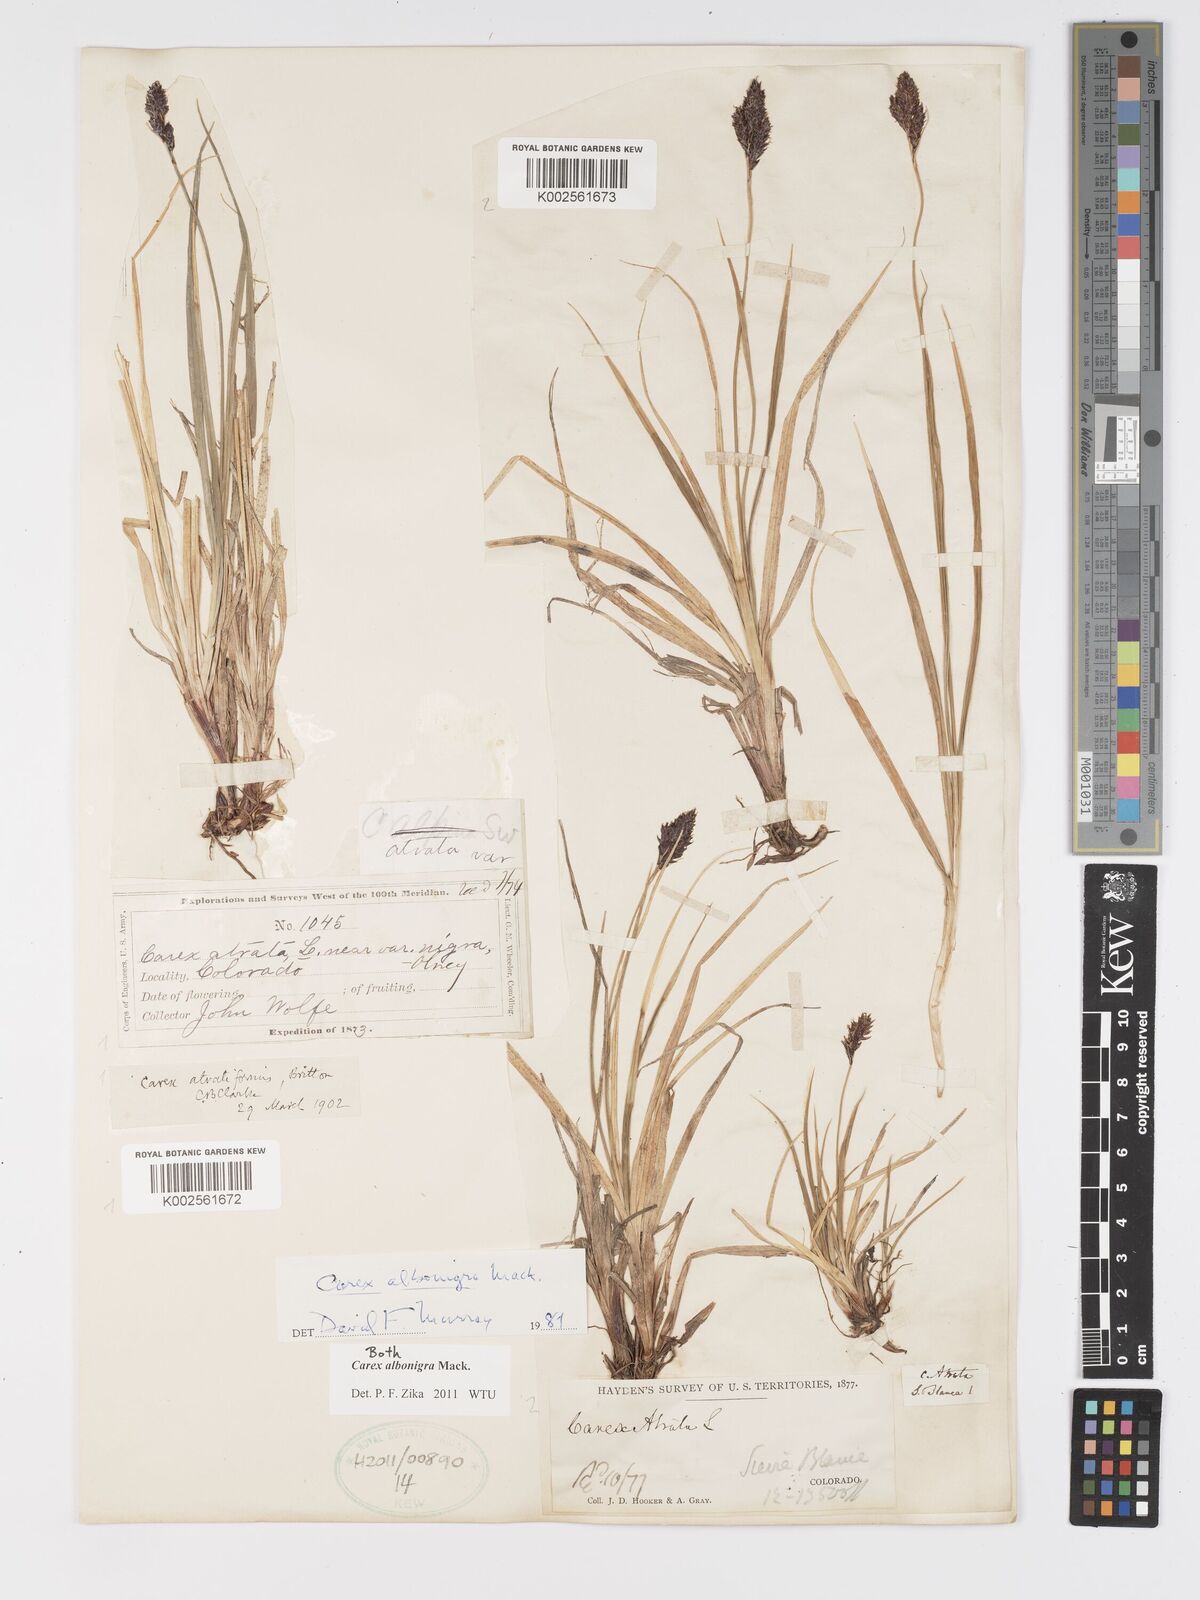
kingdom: Plantae
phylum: Tracheophyta
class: Liliopsida
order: Poales
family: Cyperaceae
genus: Carex
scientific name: Carex albonigra
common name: Black-and-white sedge
